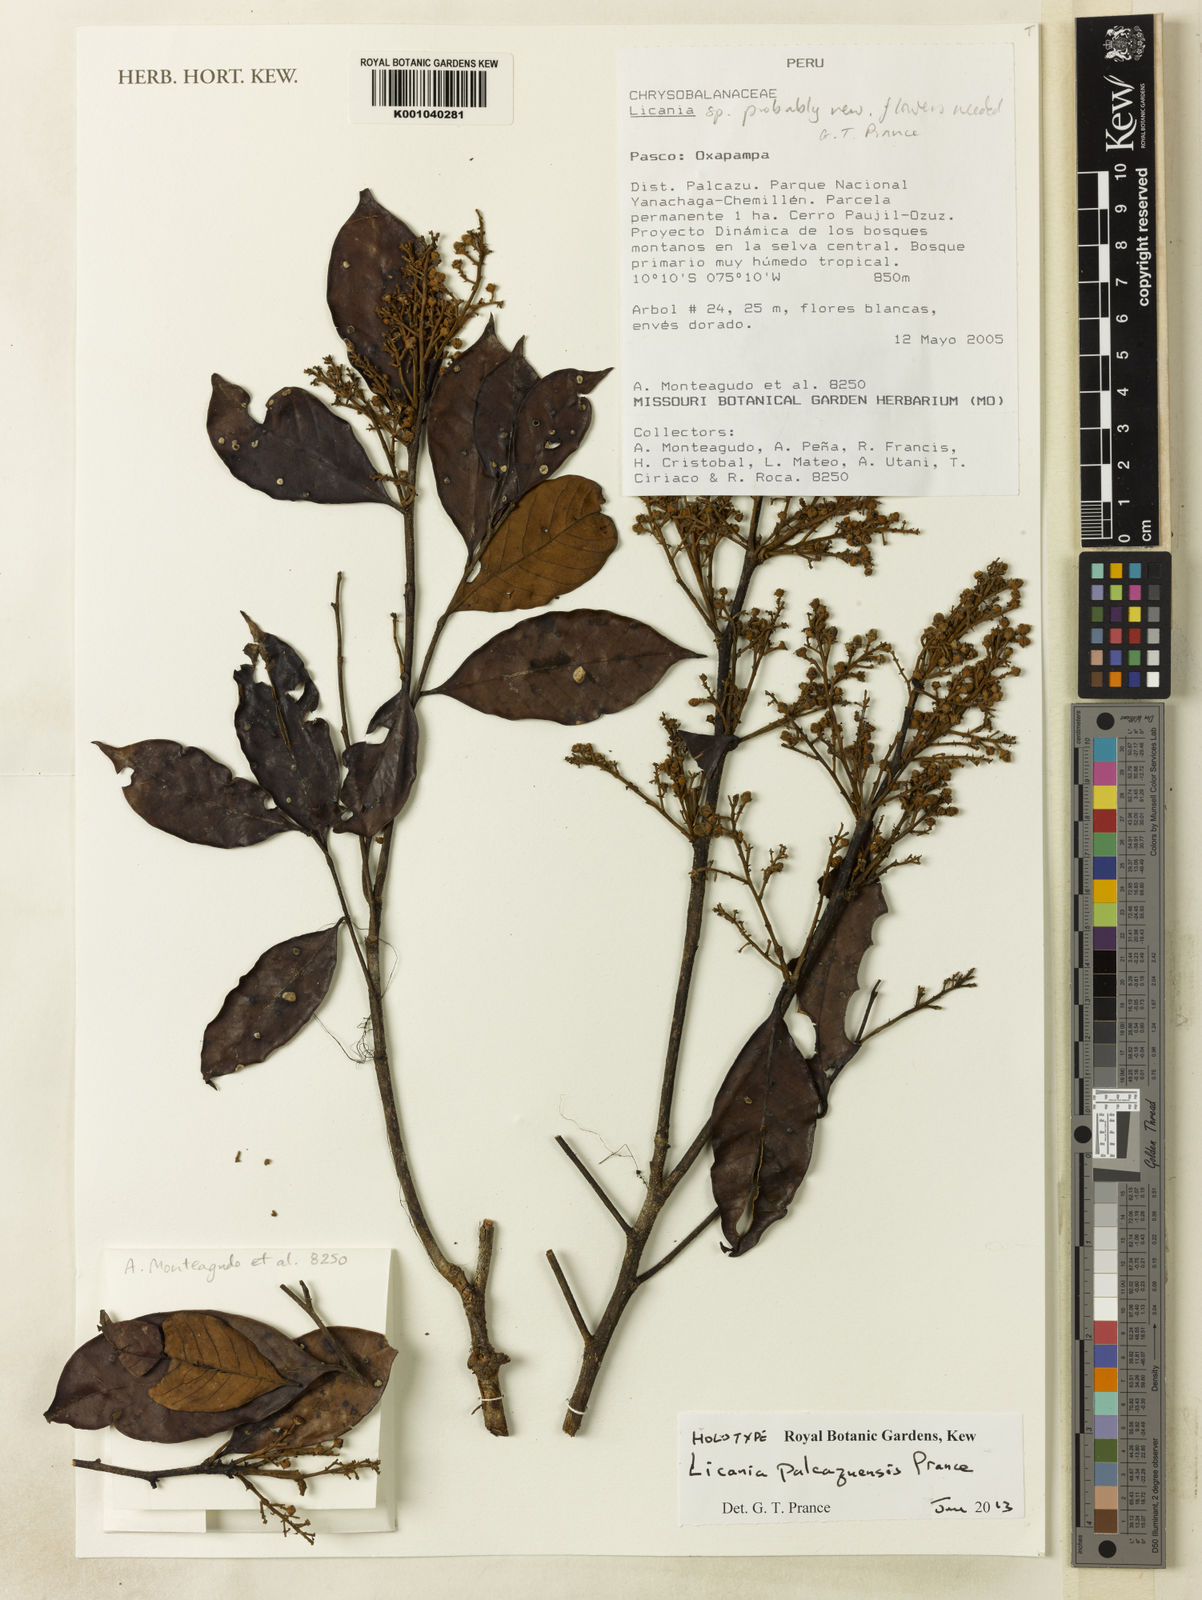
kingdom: Plantae
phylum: Tracheophyta
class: Magnoliopsida
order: Malpighiales
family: Chrysobalanaceae
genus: Moquilea
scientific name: Moquilea palcazuensis
